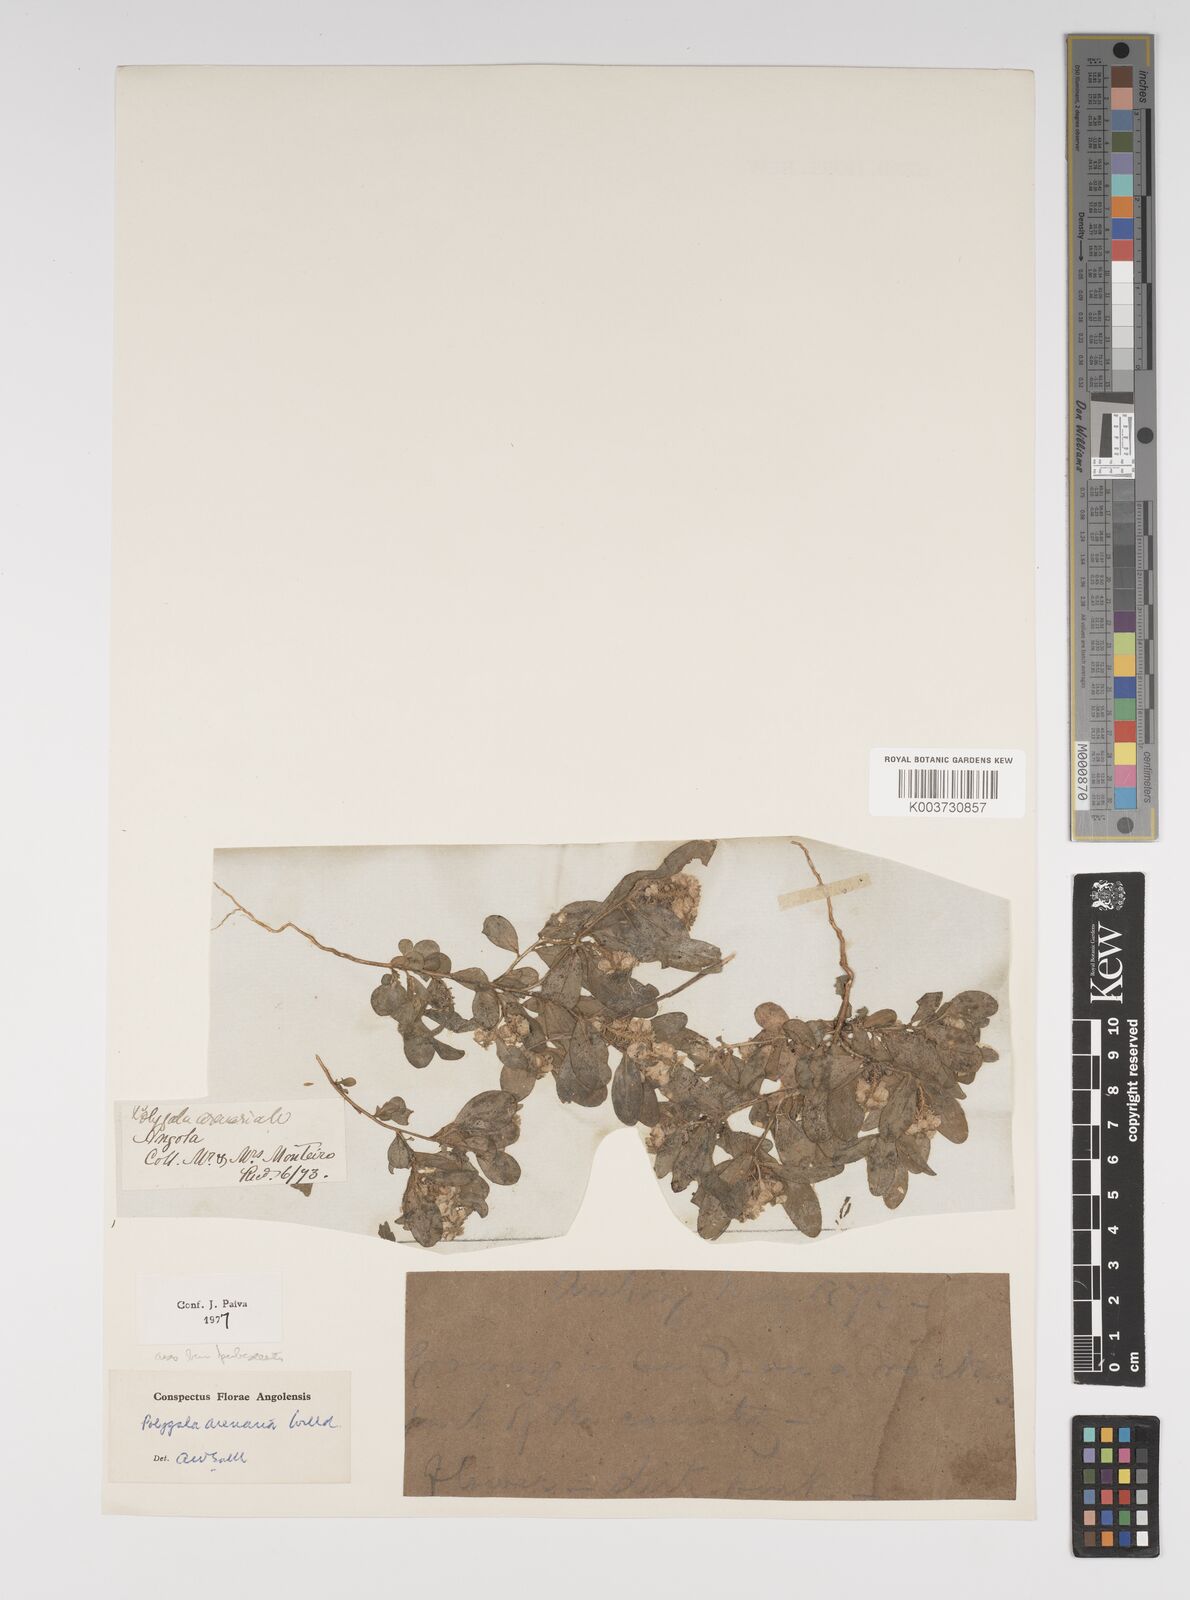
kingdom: Plantae
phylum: Tracheophyta
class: Magnoliopsida
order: Fabales
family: Polygalaceae
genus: Polygala
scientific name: Polygala arenaria
